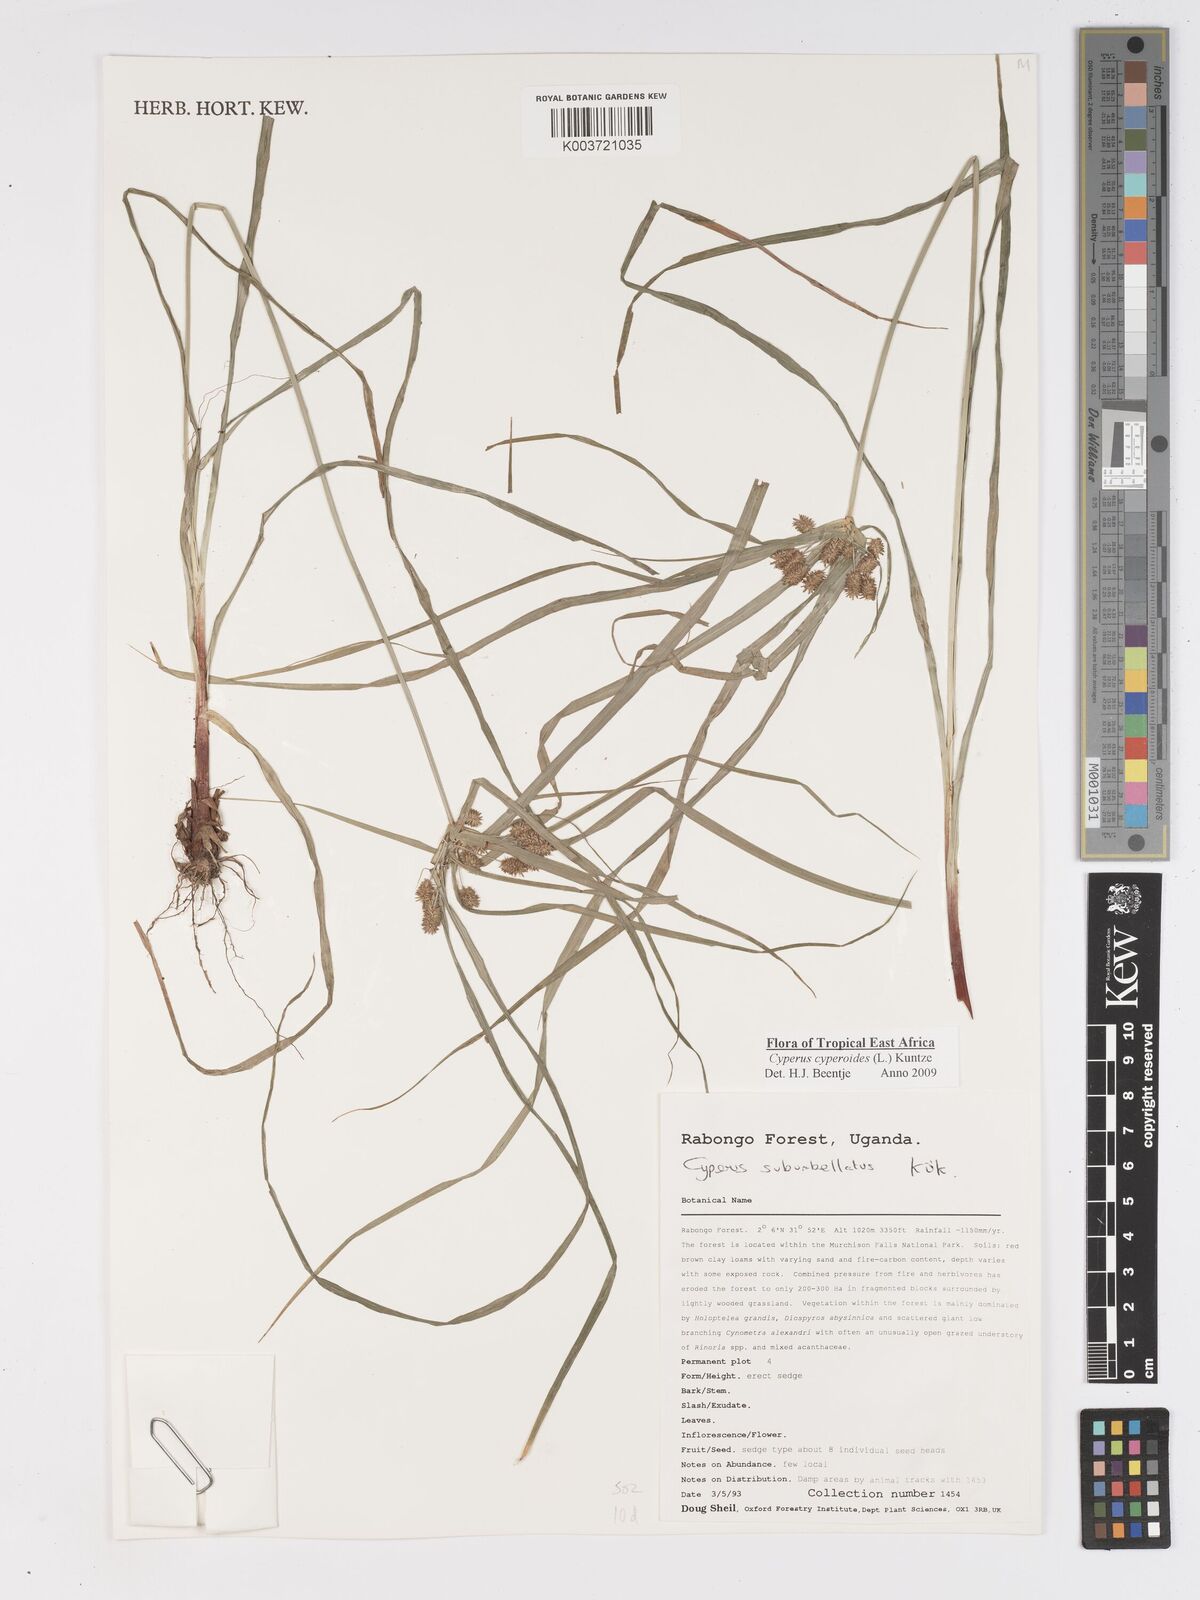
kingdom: Plantae
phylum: Tracheophyta
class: Liliopsida
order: Poales
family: Cyperaceae
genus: Cyperus
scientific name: Cyperus cyperoides
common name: Pacific island flat sedge
